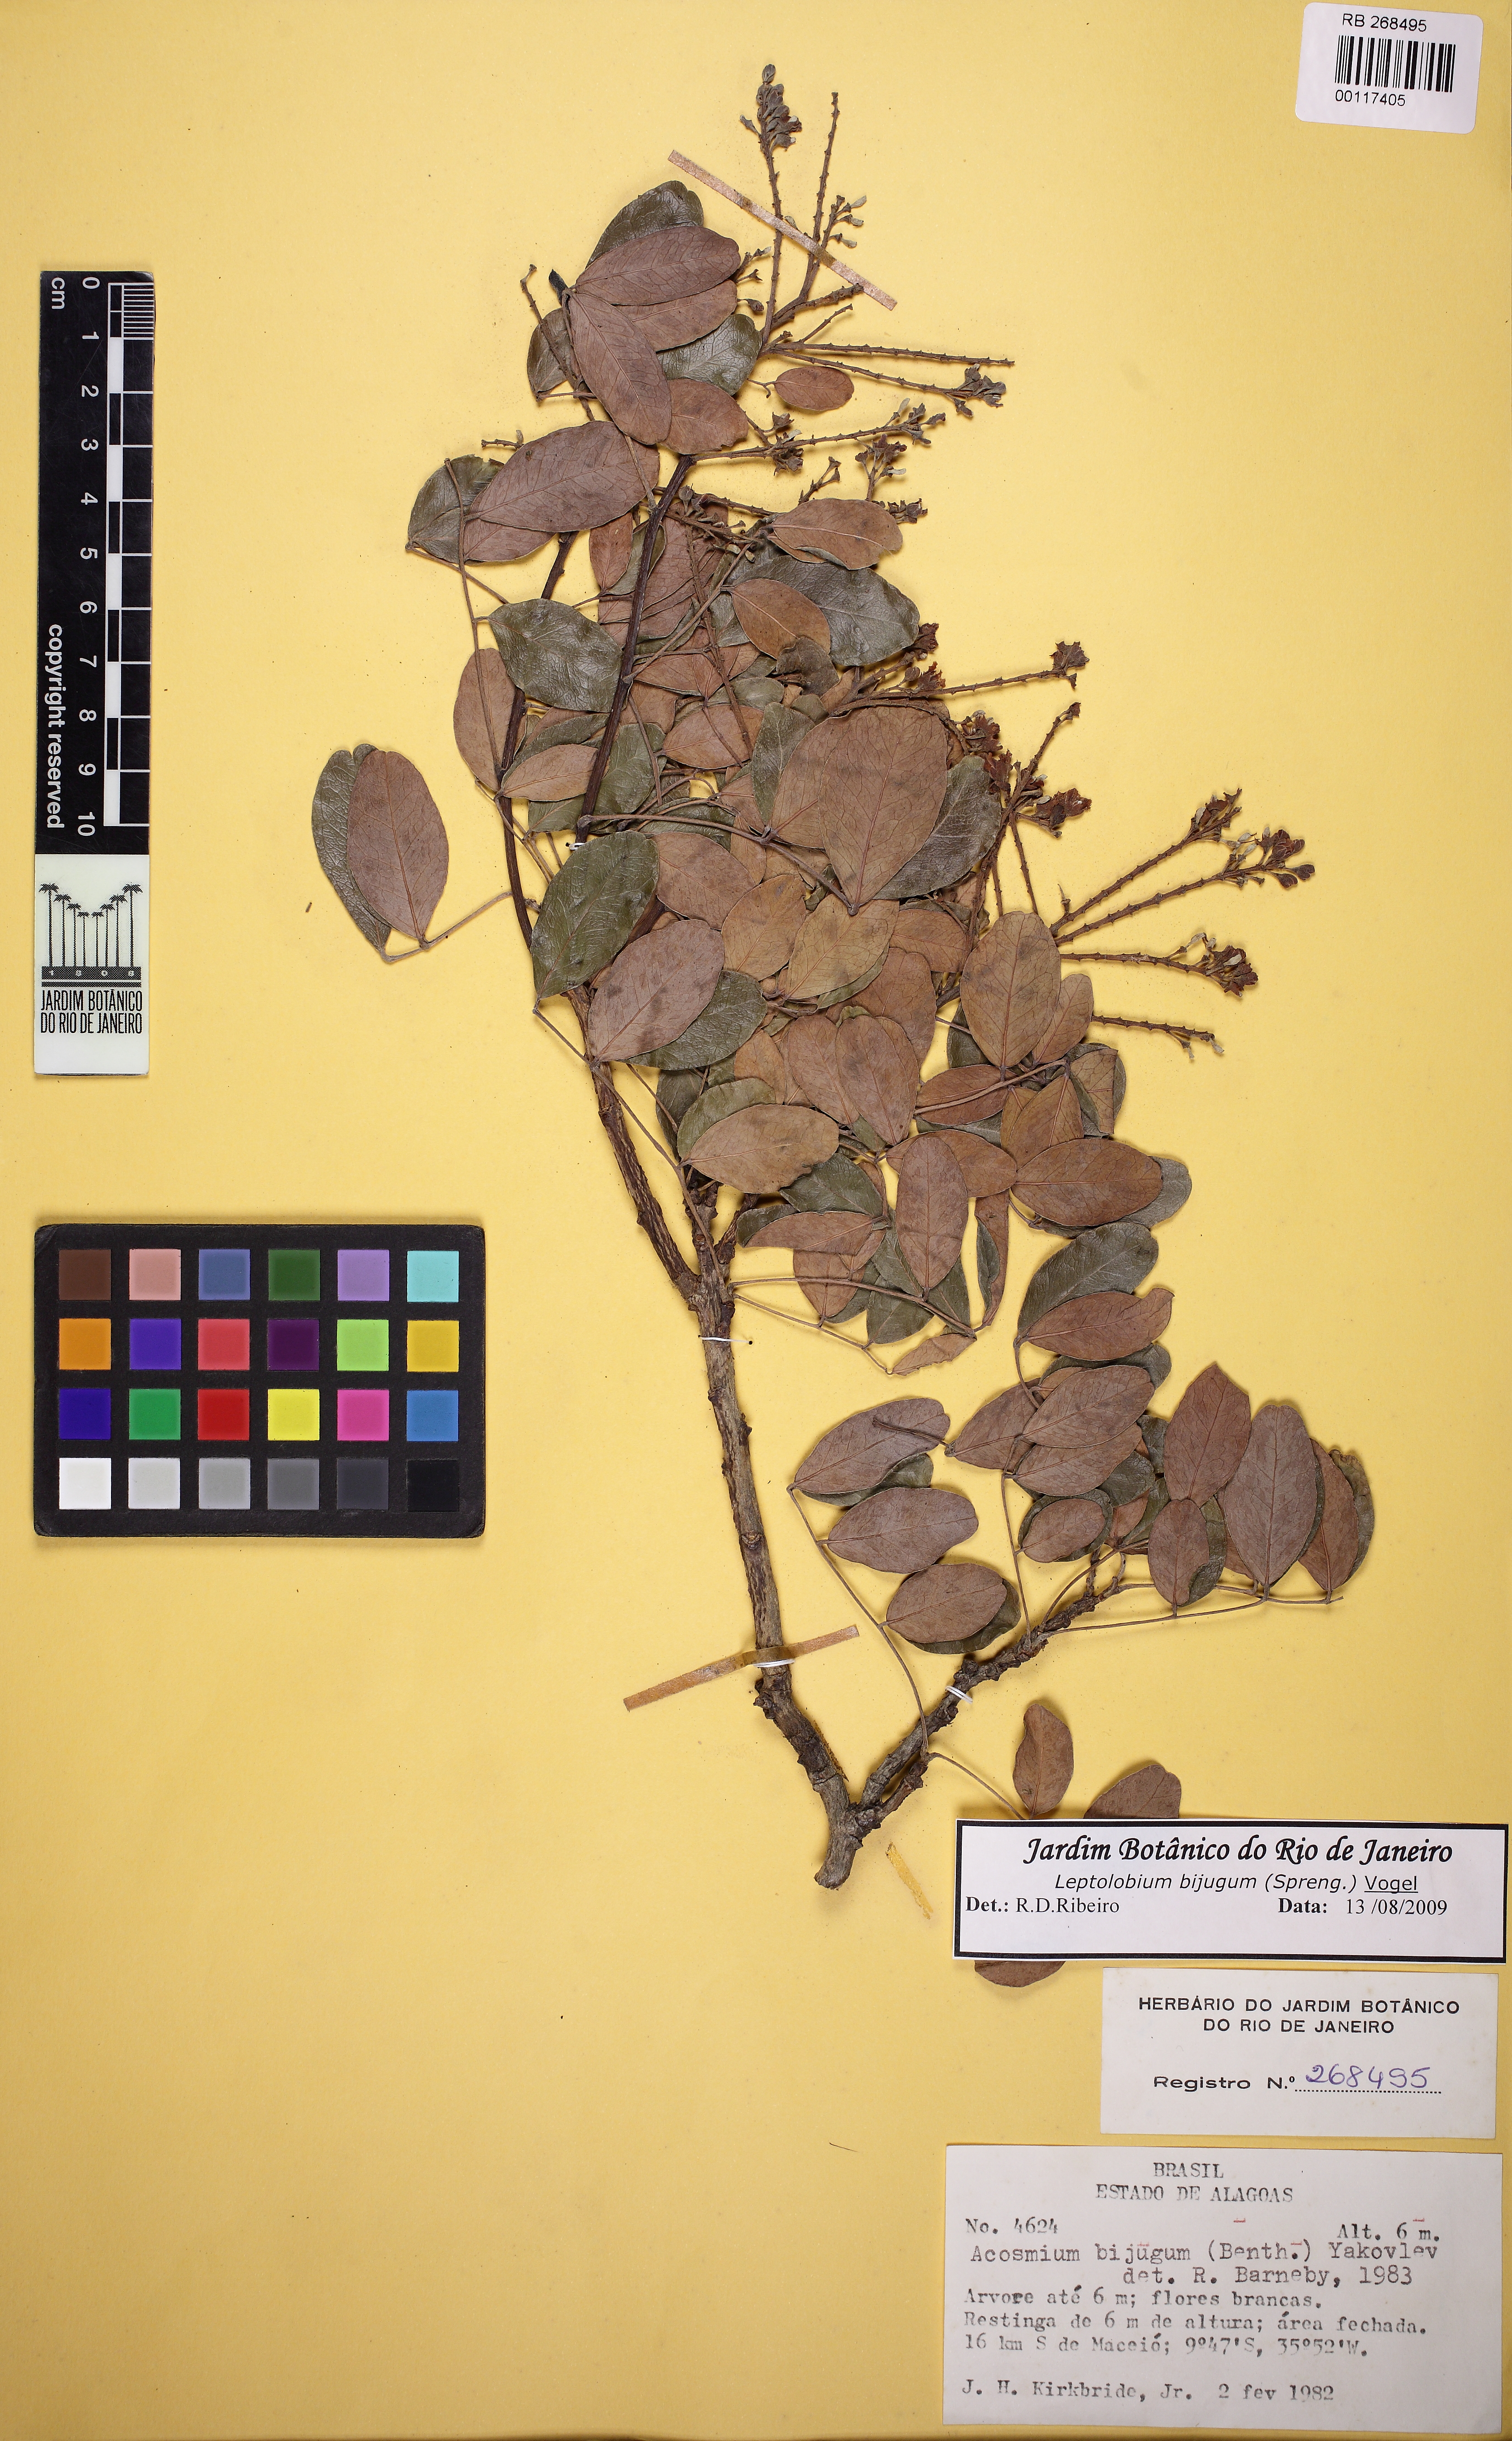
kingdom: Plantae
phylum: Tracheophyta
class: Magnoliopsida
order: Fabales
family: Fabaceae
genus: Leptolobium
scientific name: Leptolobium bijugum
